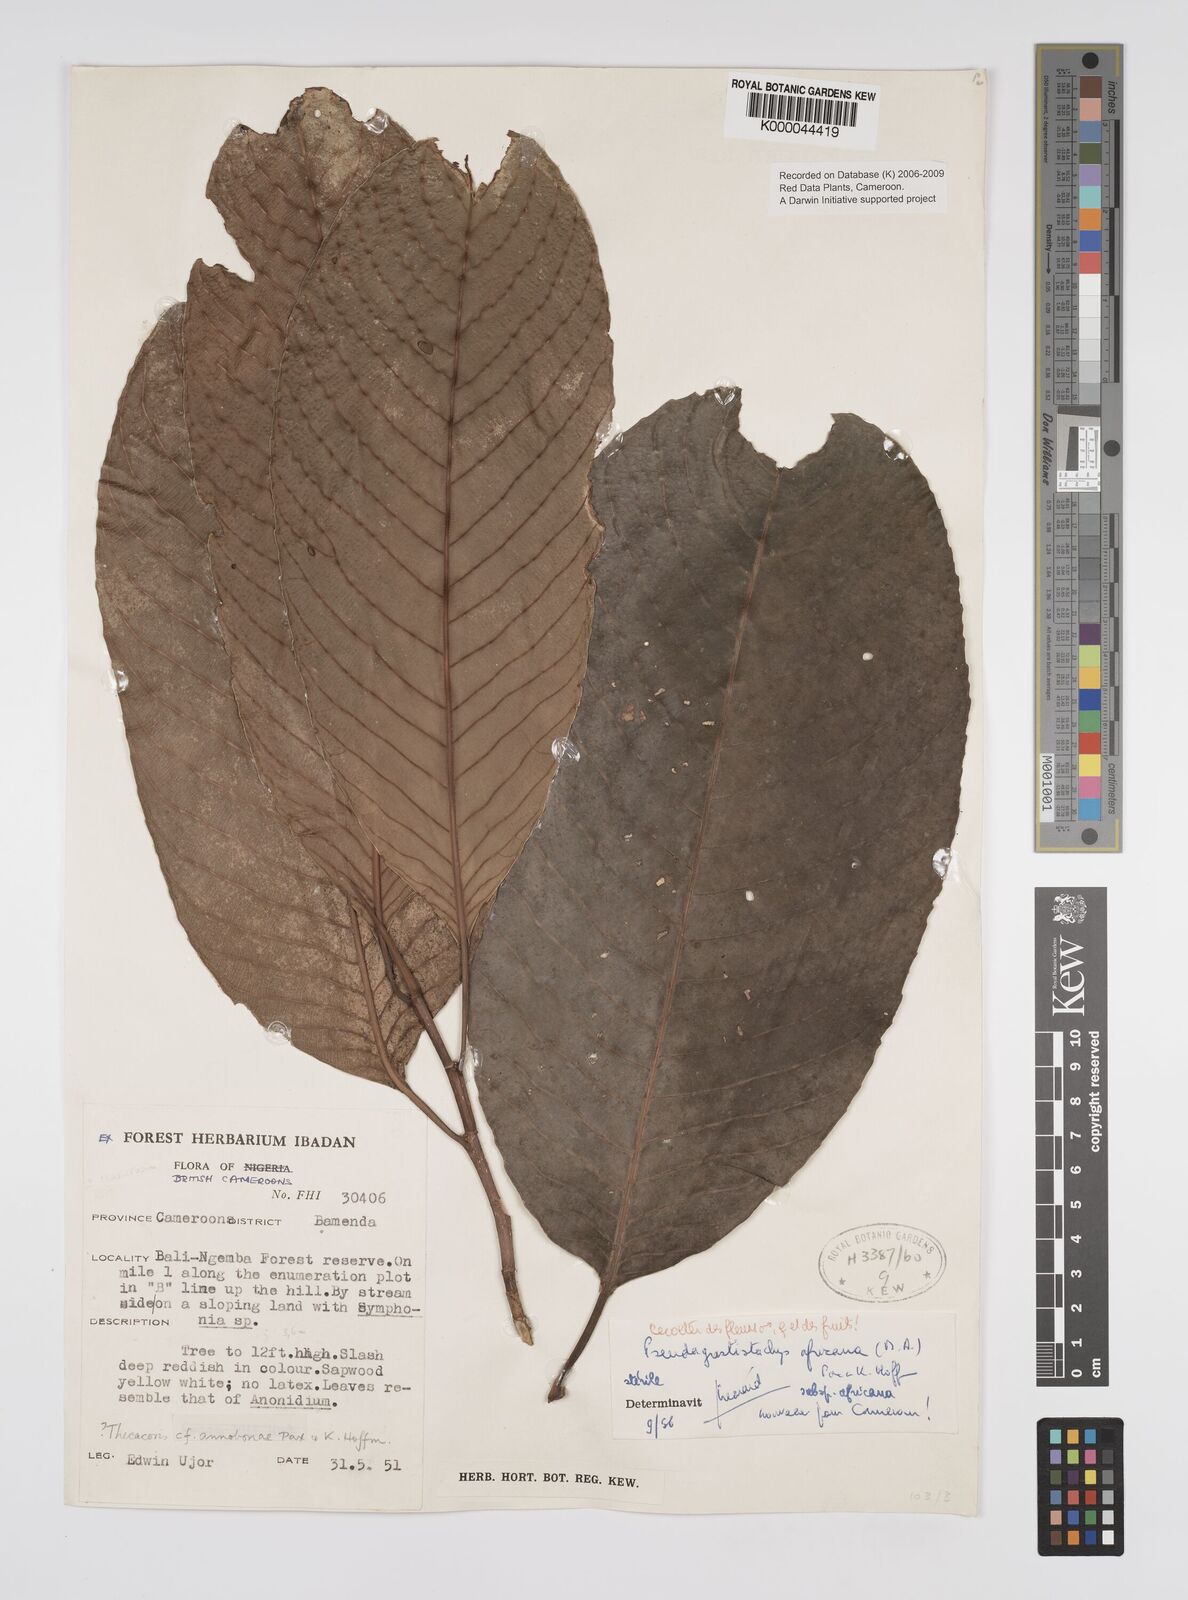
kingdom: Plantae
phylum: Tracheophyta
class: Magnoliopsida
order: Malpighiales
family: Euphorbiaceae
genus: Pseudagrostistachys
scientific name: Pseudagrostistachys
